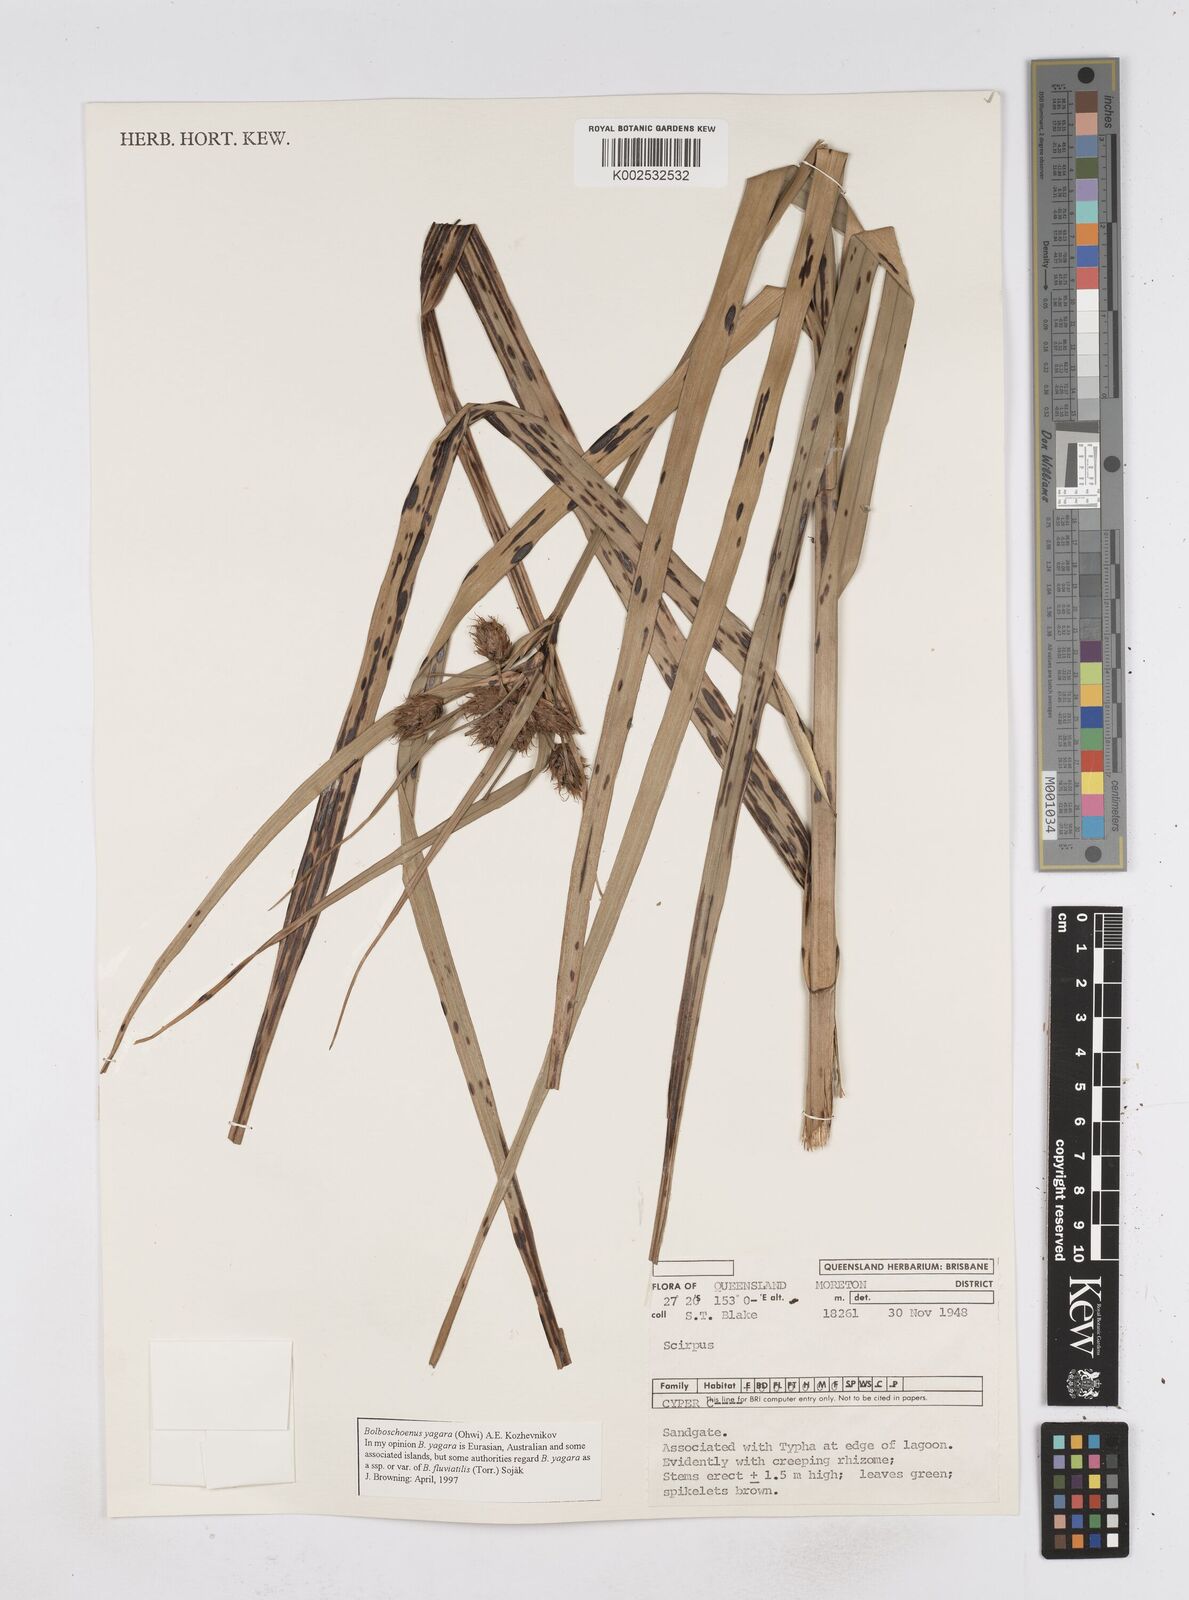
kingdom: Plantae
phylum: Tracheophyta
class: Liliopsida
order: Poales
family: Cyperaceae
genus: Bolboschoenus
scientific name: Bolboschoenus
